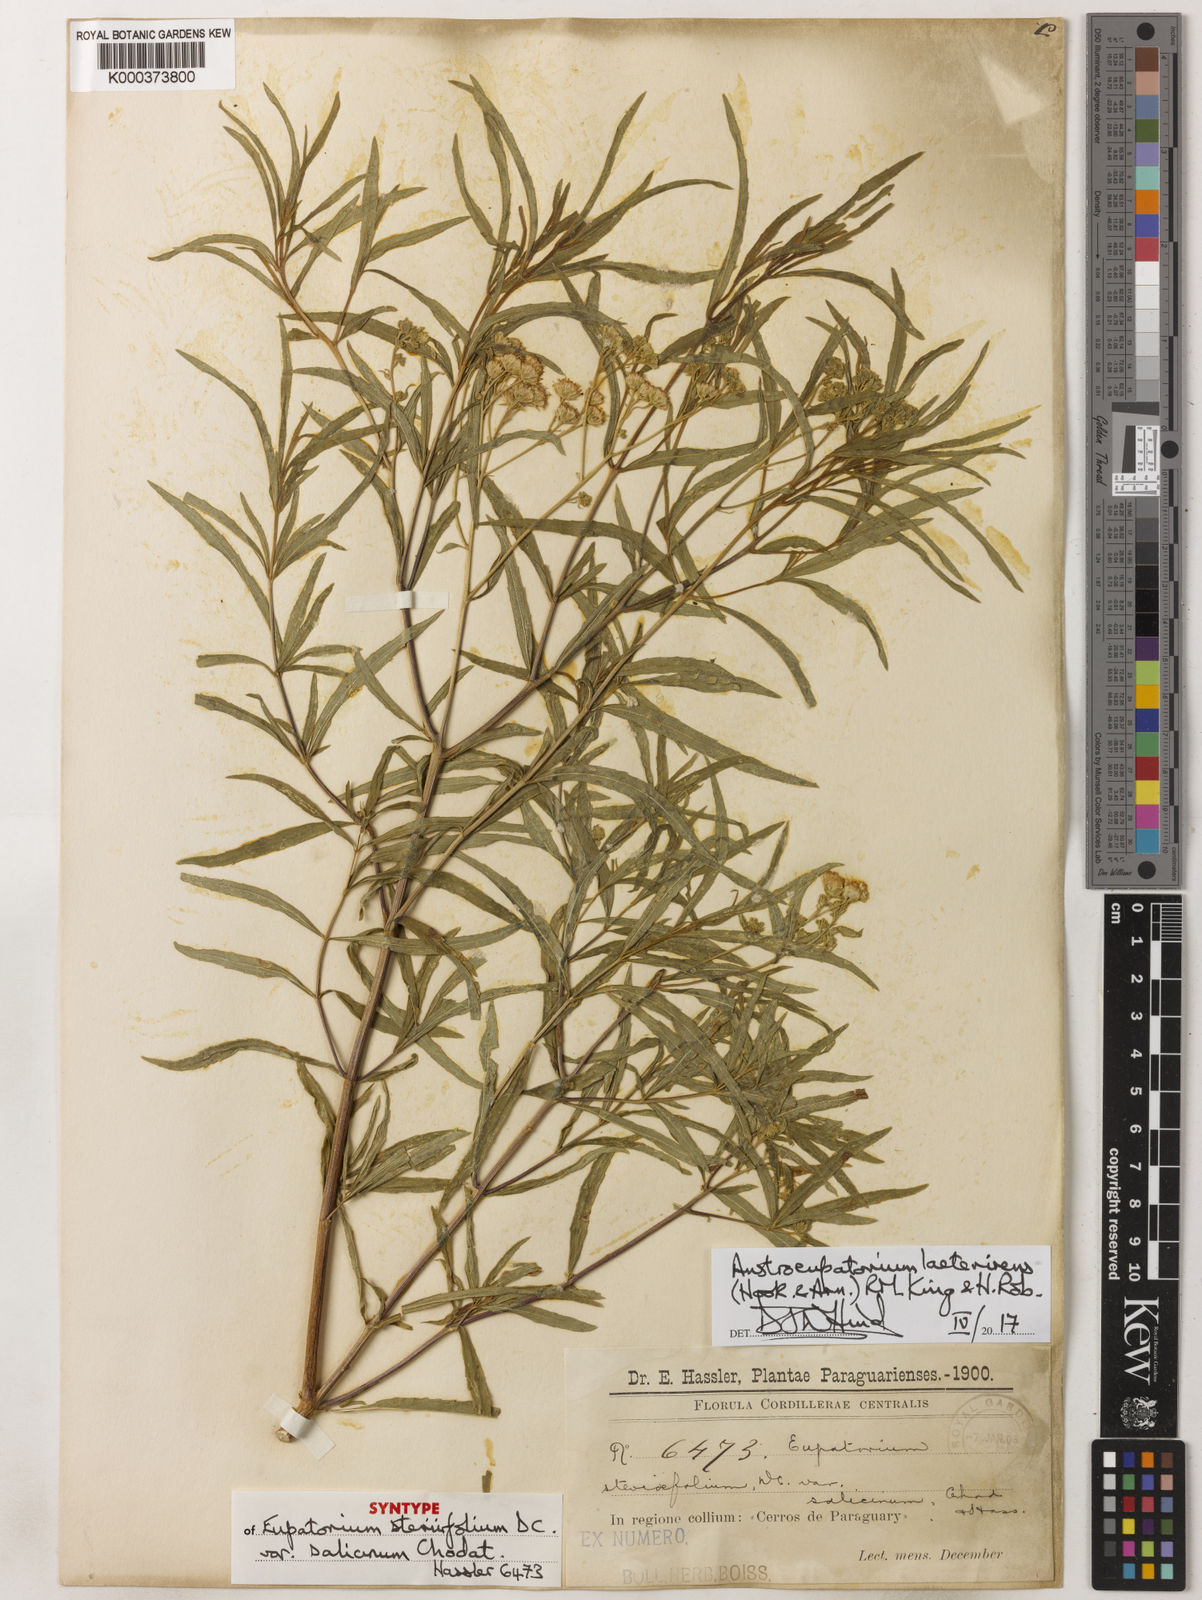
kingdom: Plantae
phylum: Tracheophyta
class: Magnoliopsida
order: Asterales
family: Asteraceae
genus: Austroeupatorium
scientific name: Austroeupatorium laetevirens
